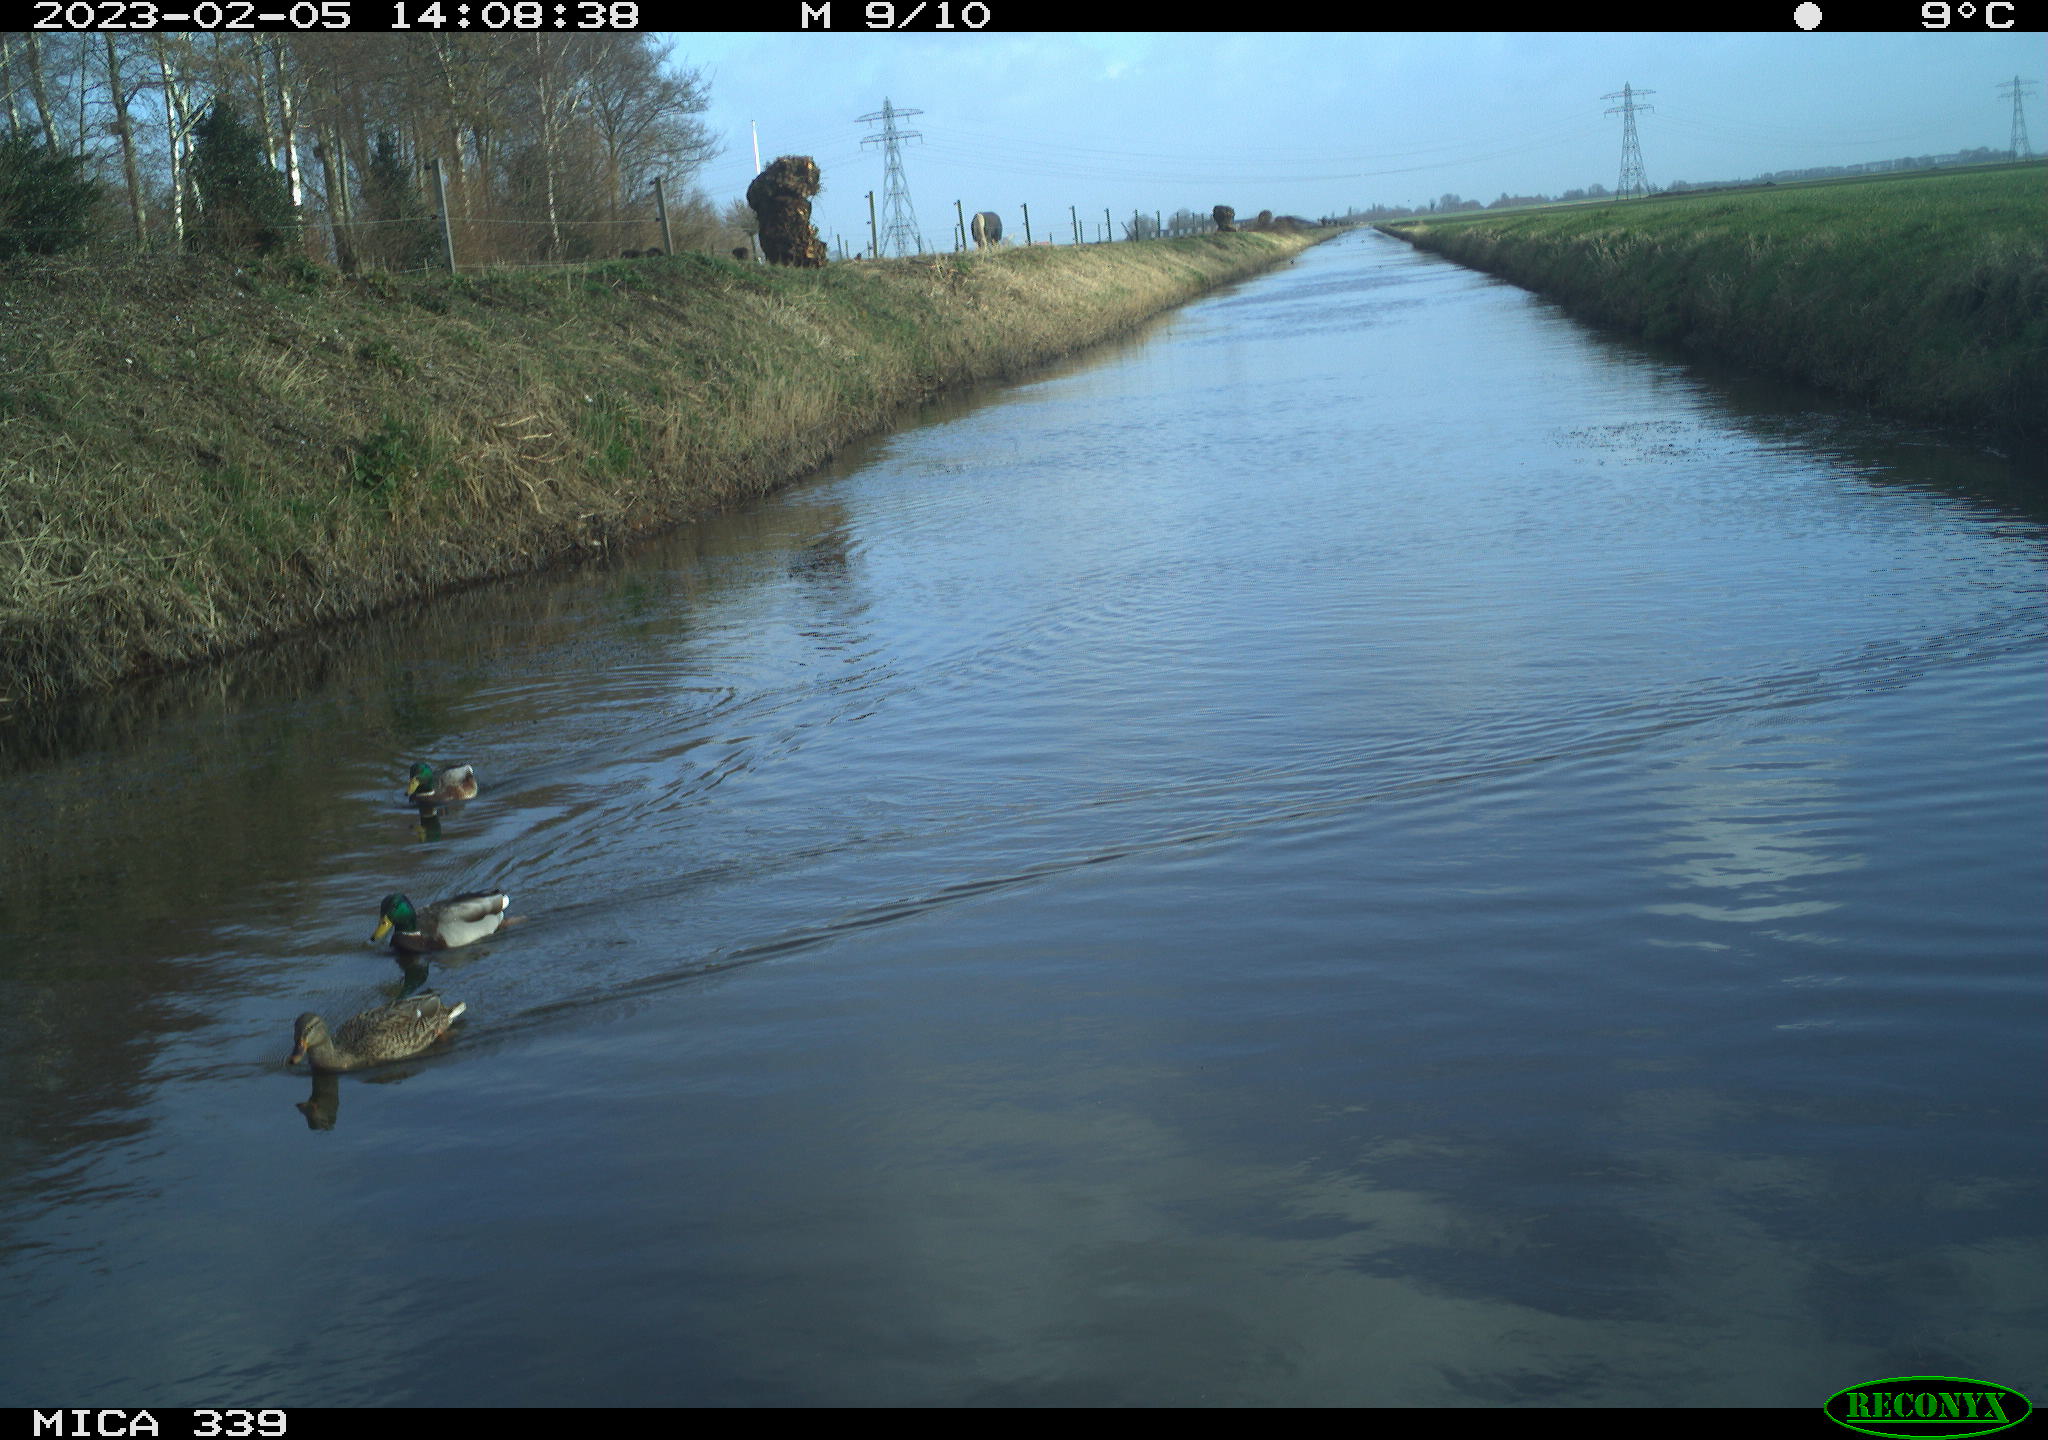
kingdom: Animalia
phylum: Chordata
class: Aves
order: Anseriformes
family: Anatidae
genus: Anas
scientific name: Anas
